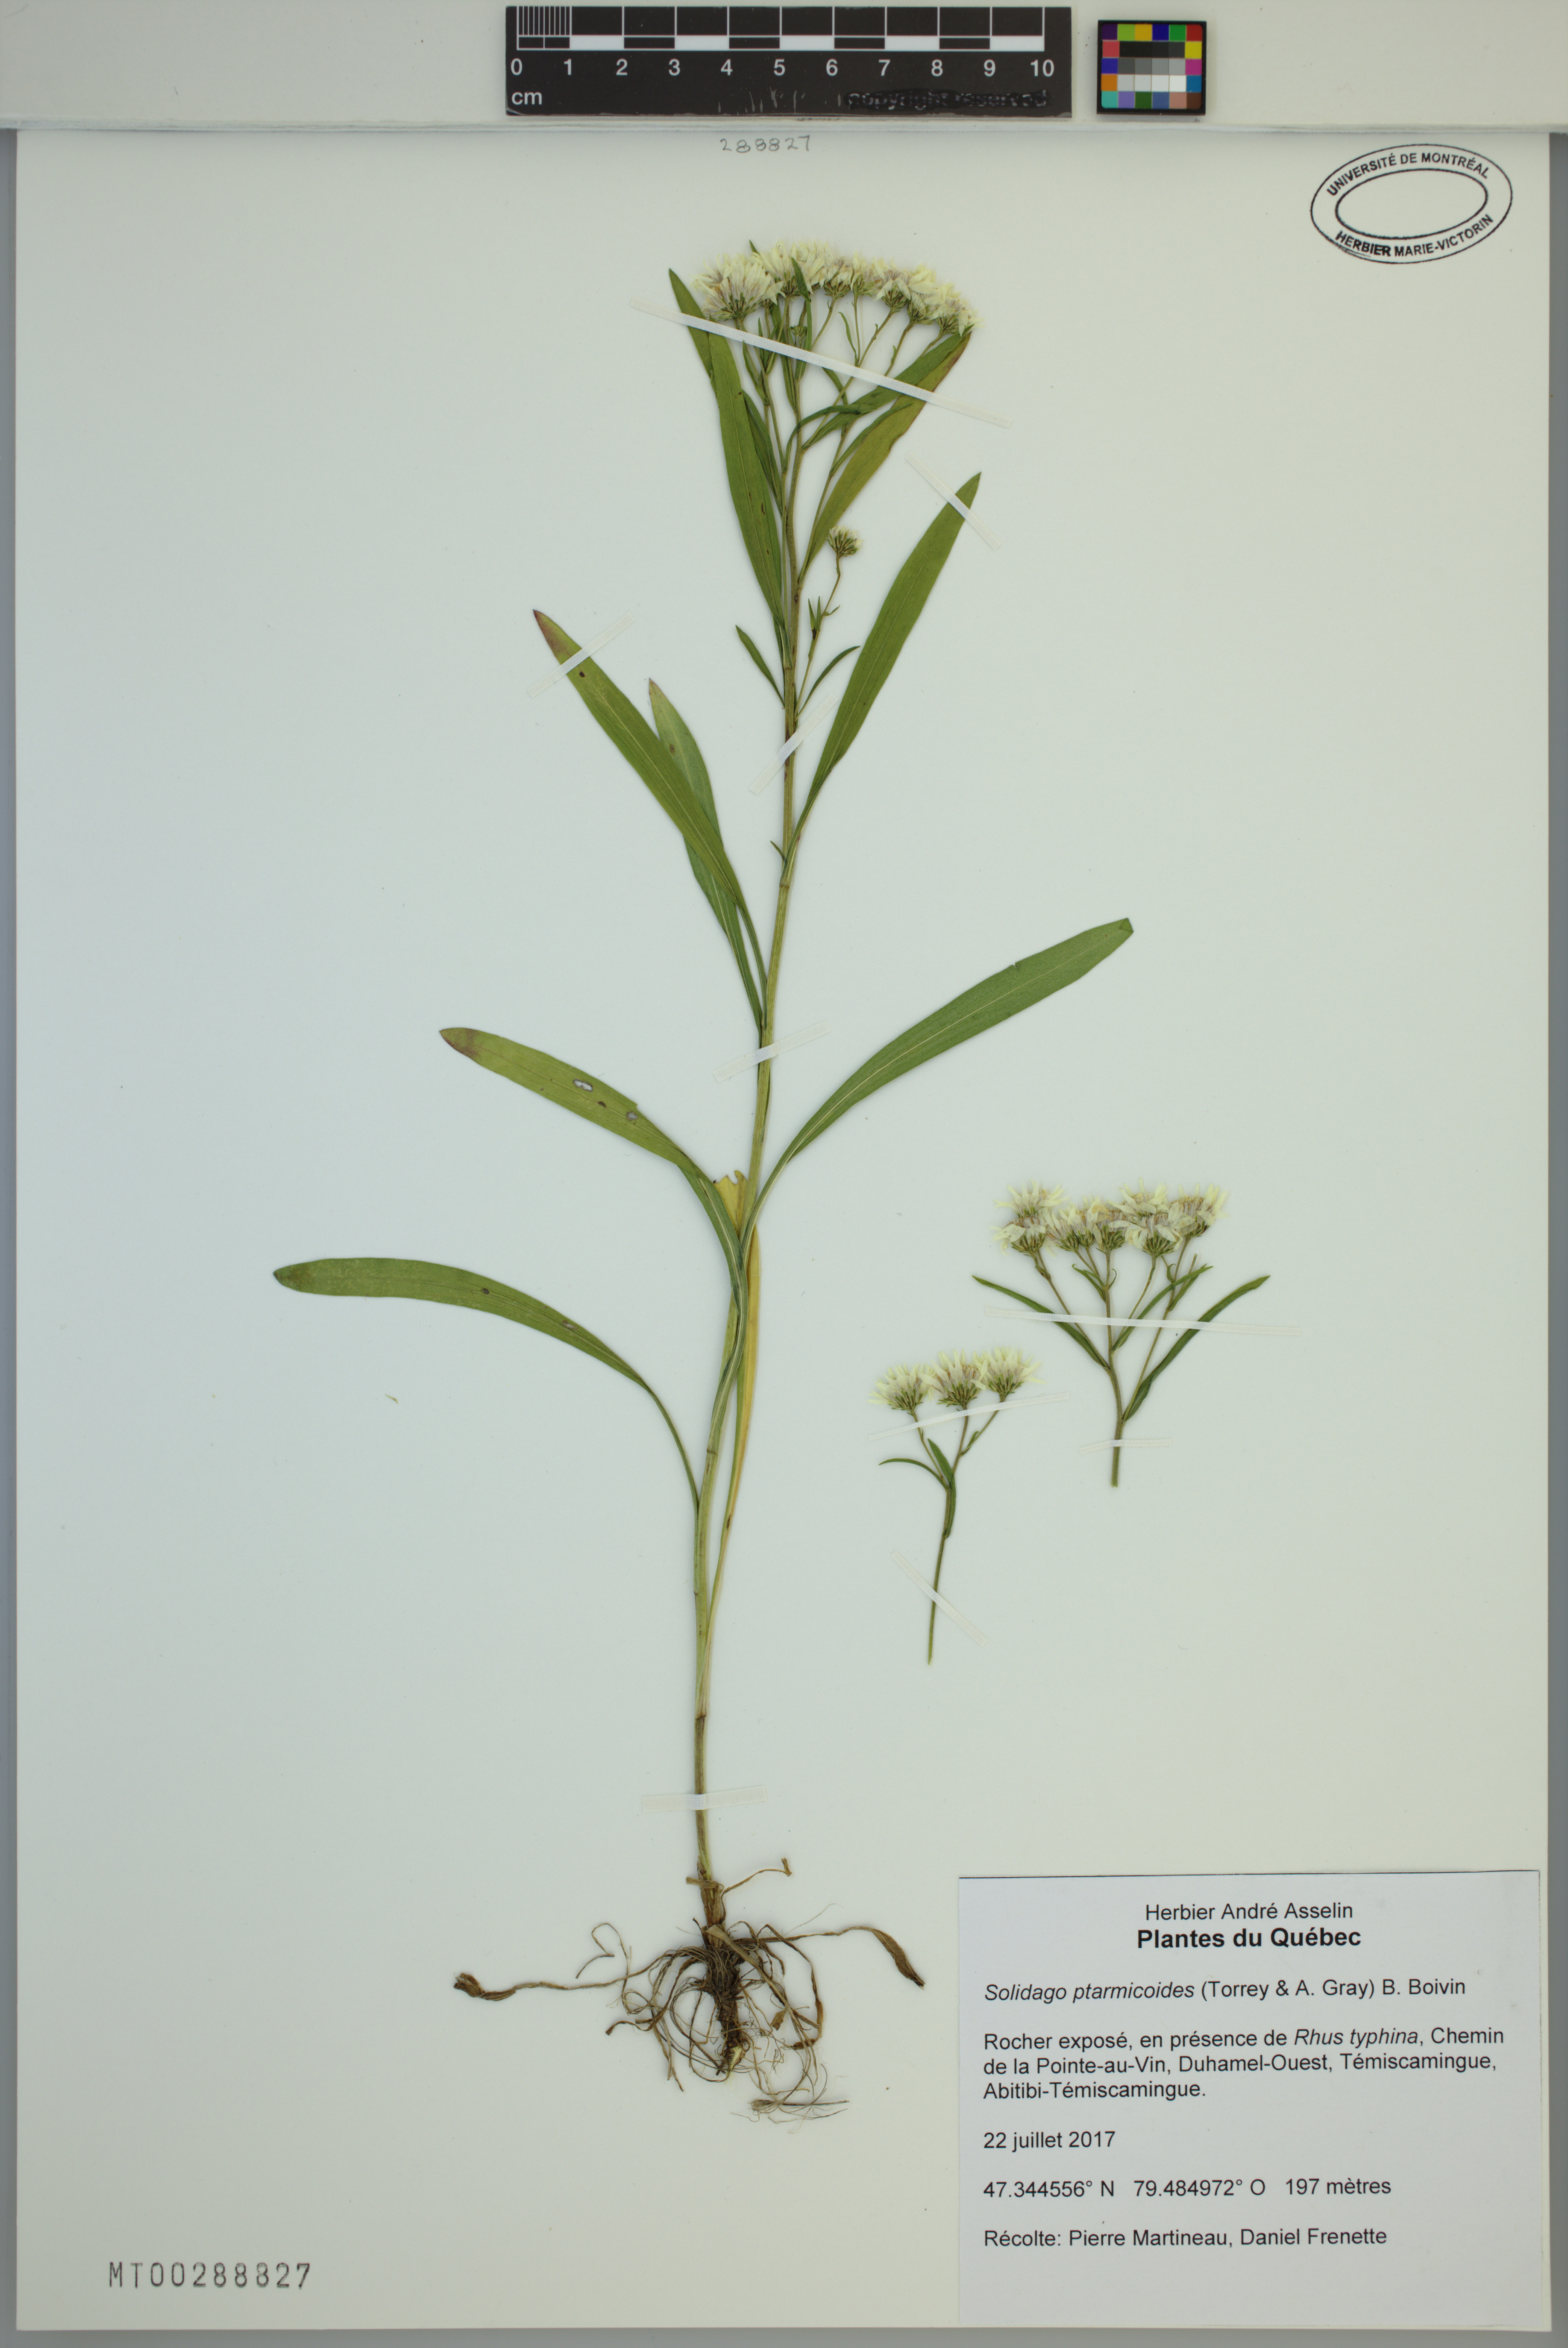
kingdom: Plantae
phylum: Tracheophyta
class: Magnoliopsida
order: Asterales
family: Asteraceae
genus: Solidago
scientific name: Solidago ptarmicoides
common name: White flat-top goldenrod
